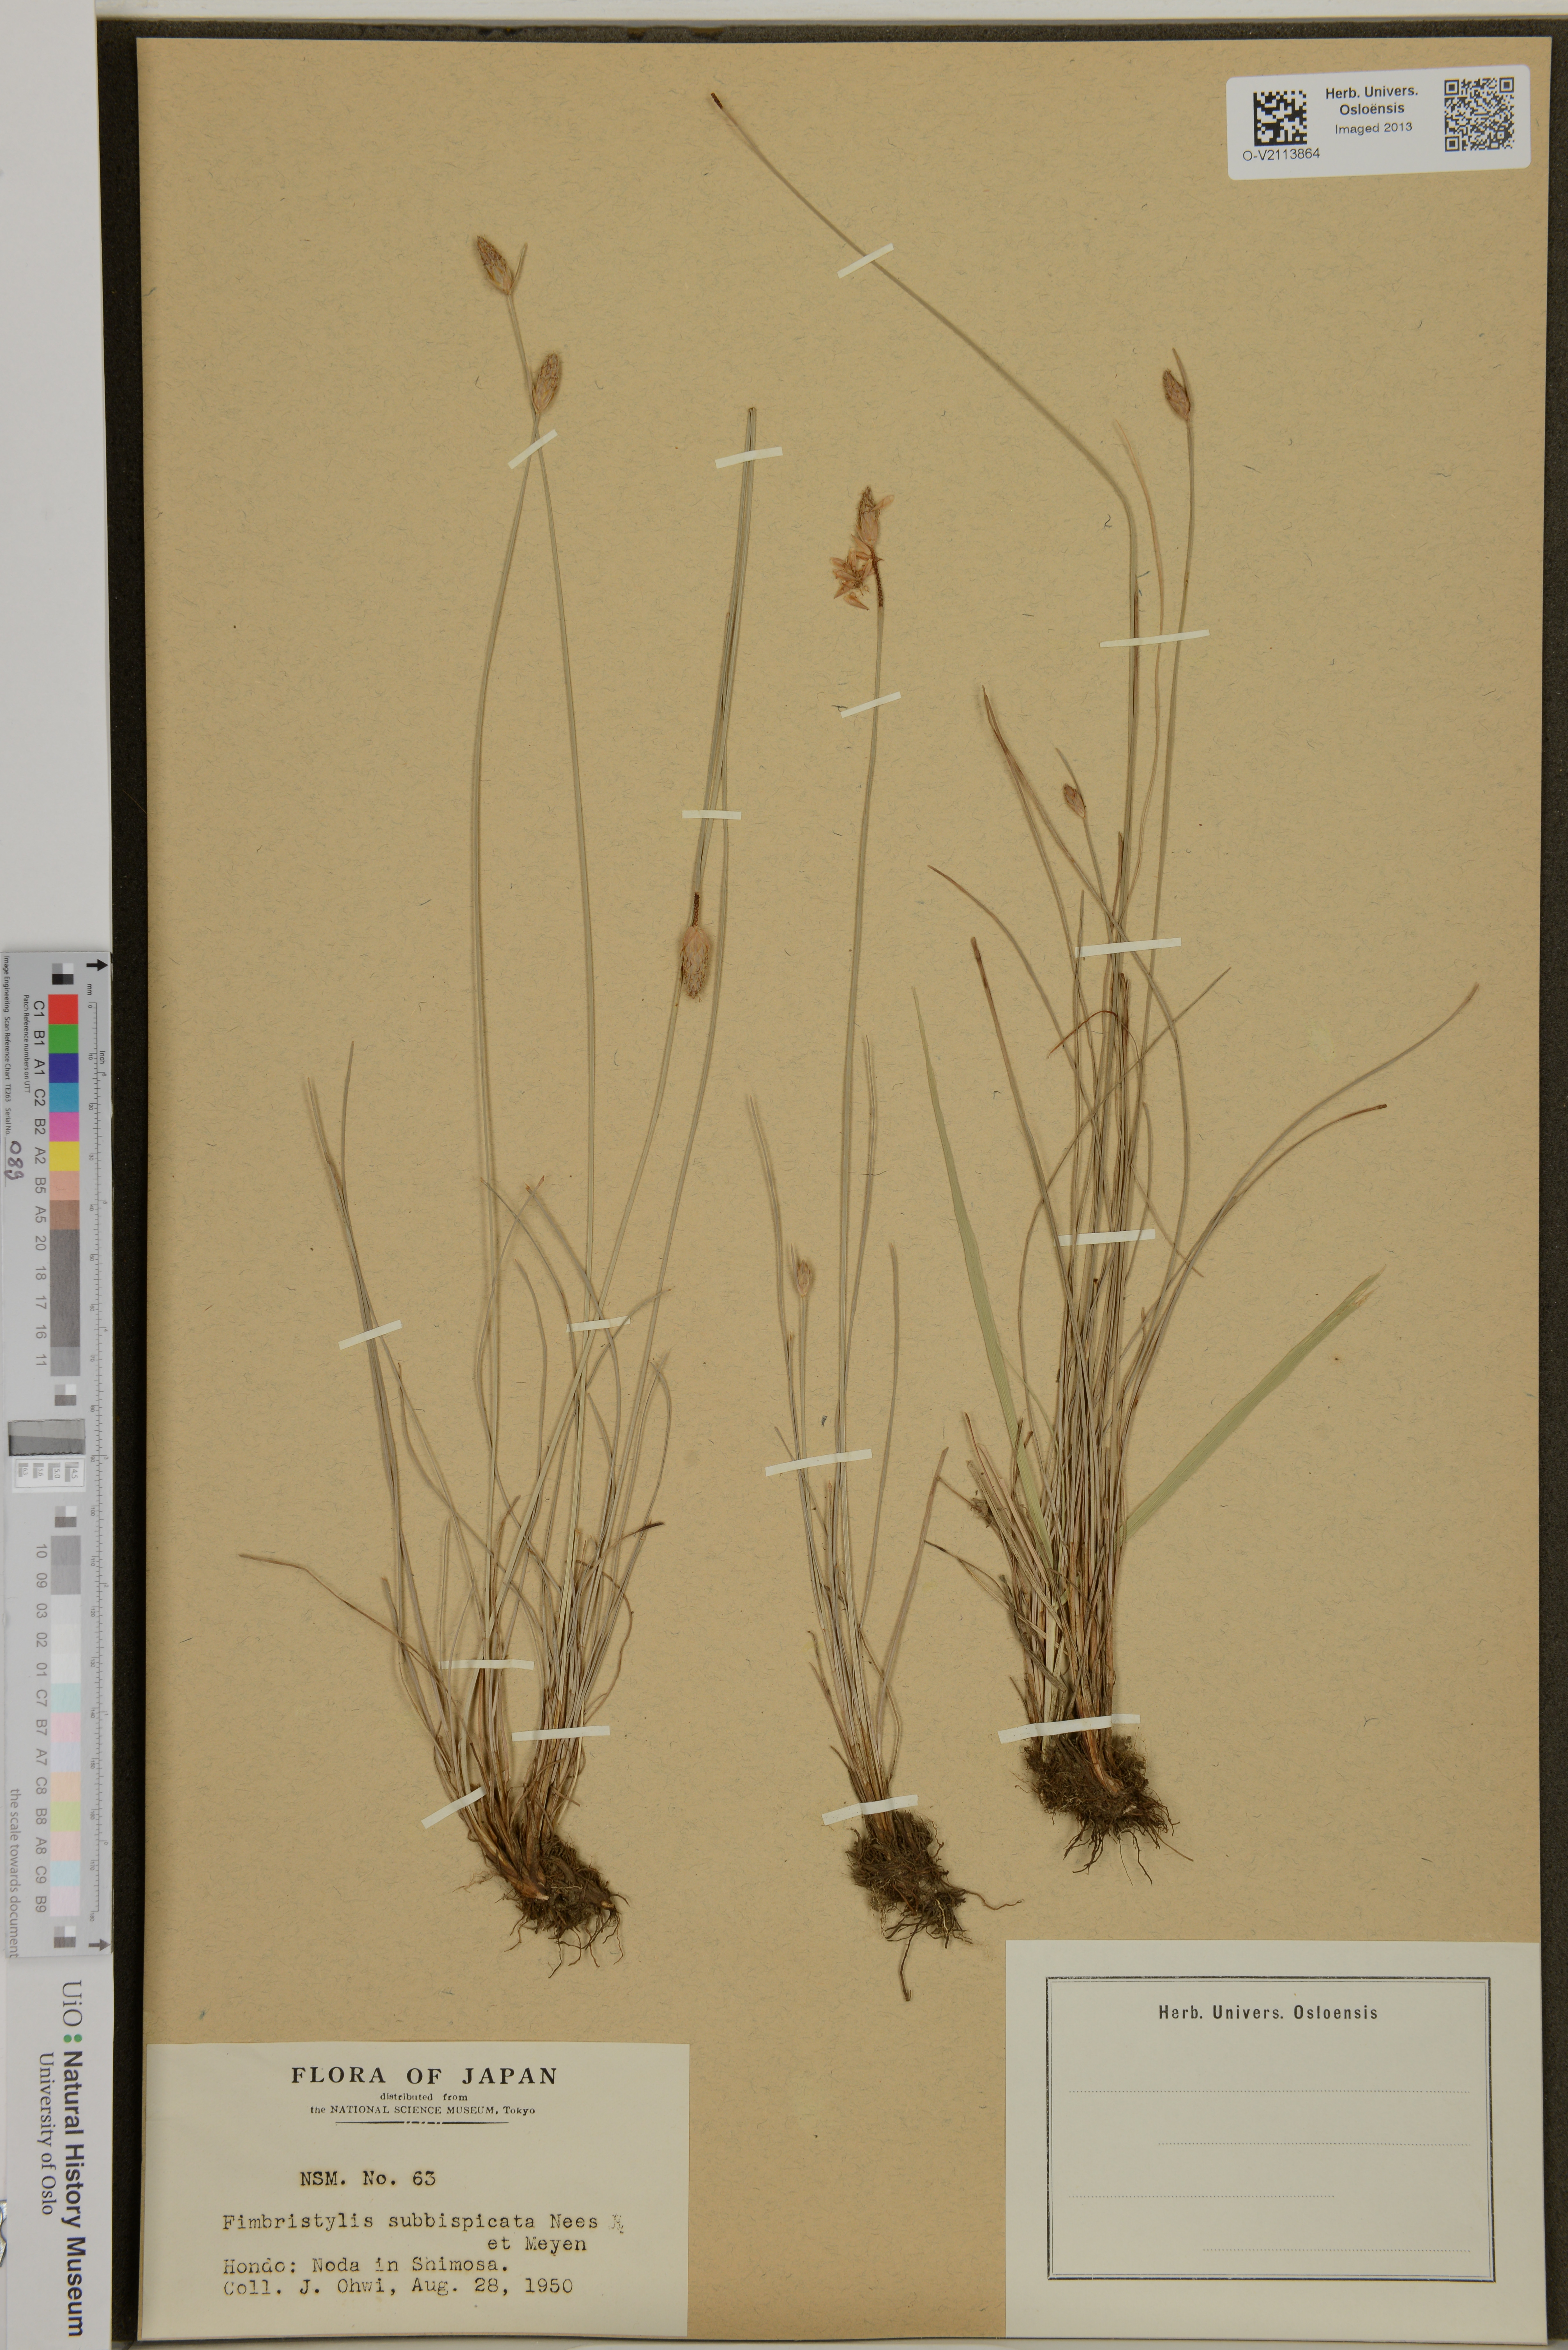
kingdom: Plantae
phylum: Tracheophyta
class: Liliopsida
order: Poales
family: Cyperaceae
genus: Fimbristylis
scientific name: Fimbristylis tristachya
